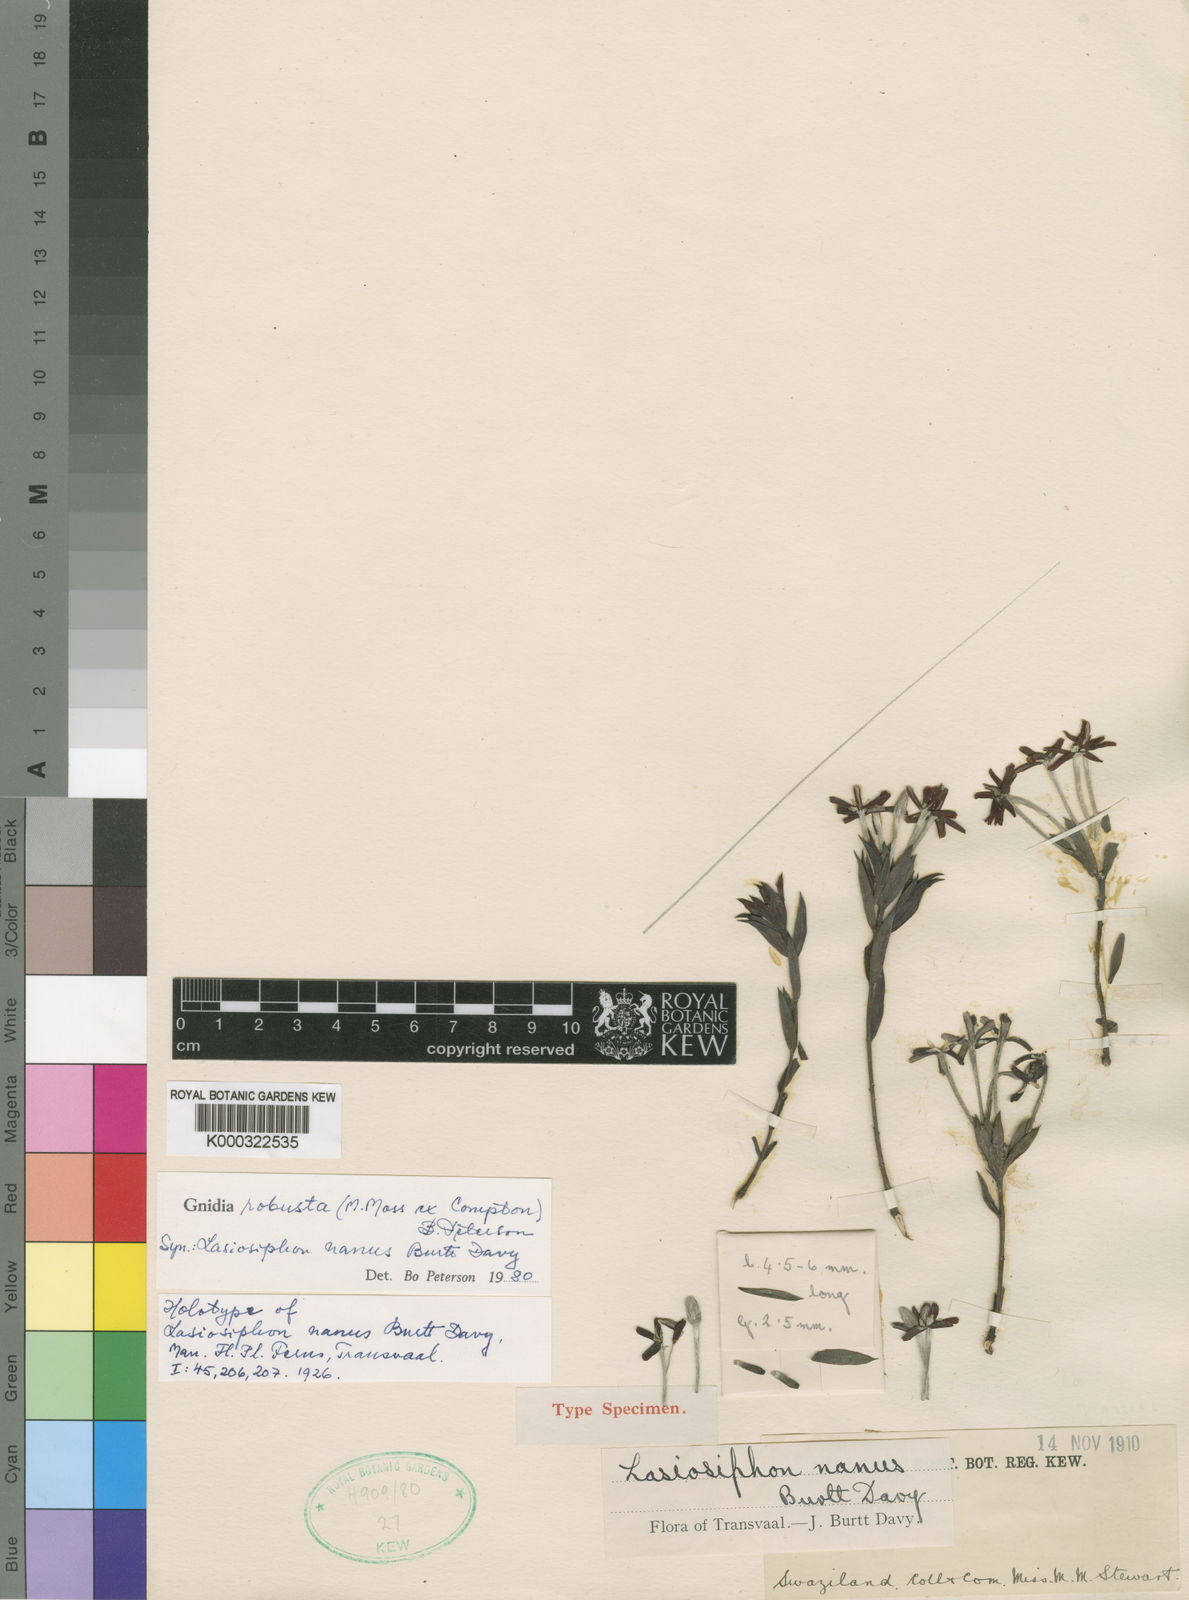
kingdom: Plantae
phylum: Tracheophyta
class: Magnoliopsida
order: Malvales
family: Thymelaeaceae
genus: Gnidia
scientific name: Gnidia robusta
